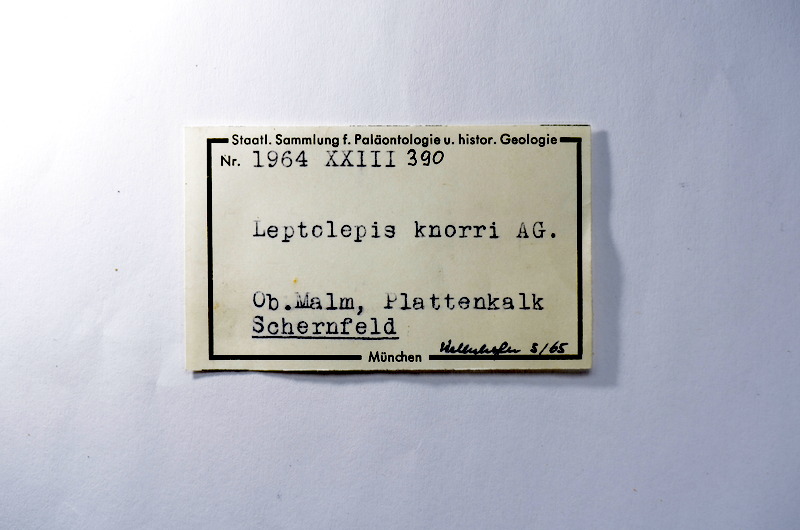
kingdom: Animalia
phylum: Chordata
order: Elopiformes
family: Anaethalionidae
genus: Anaethalion
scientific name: Anaethalion knorri
